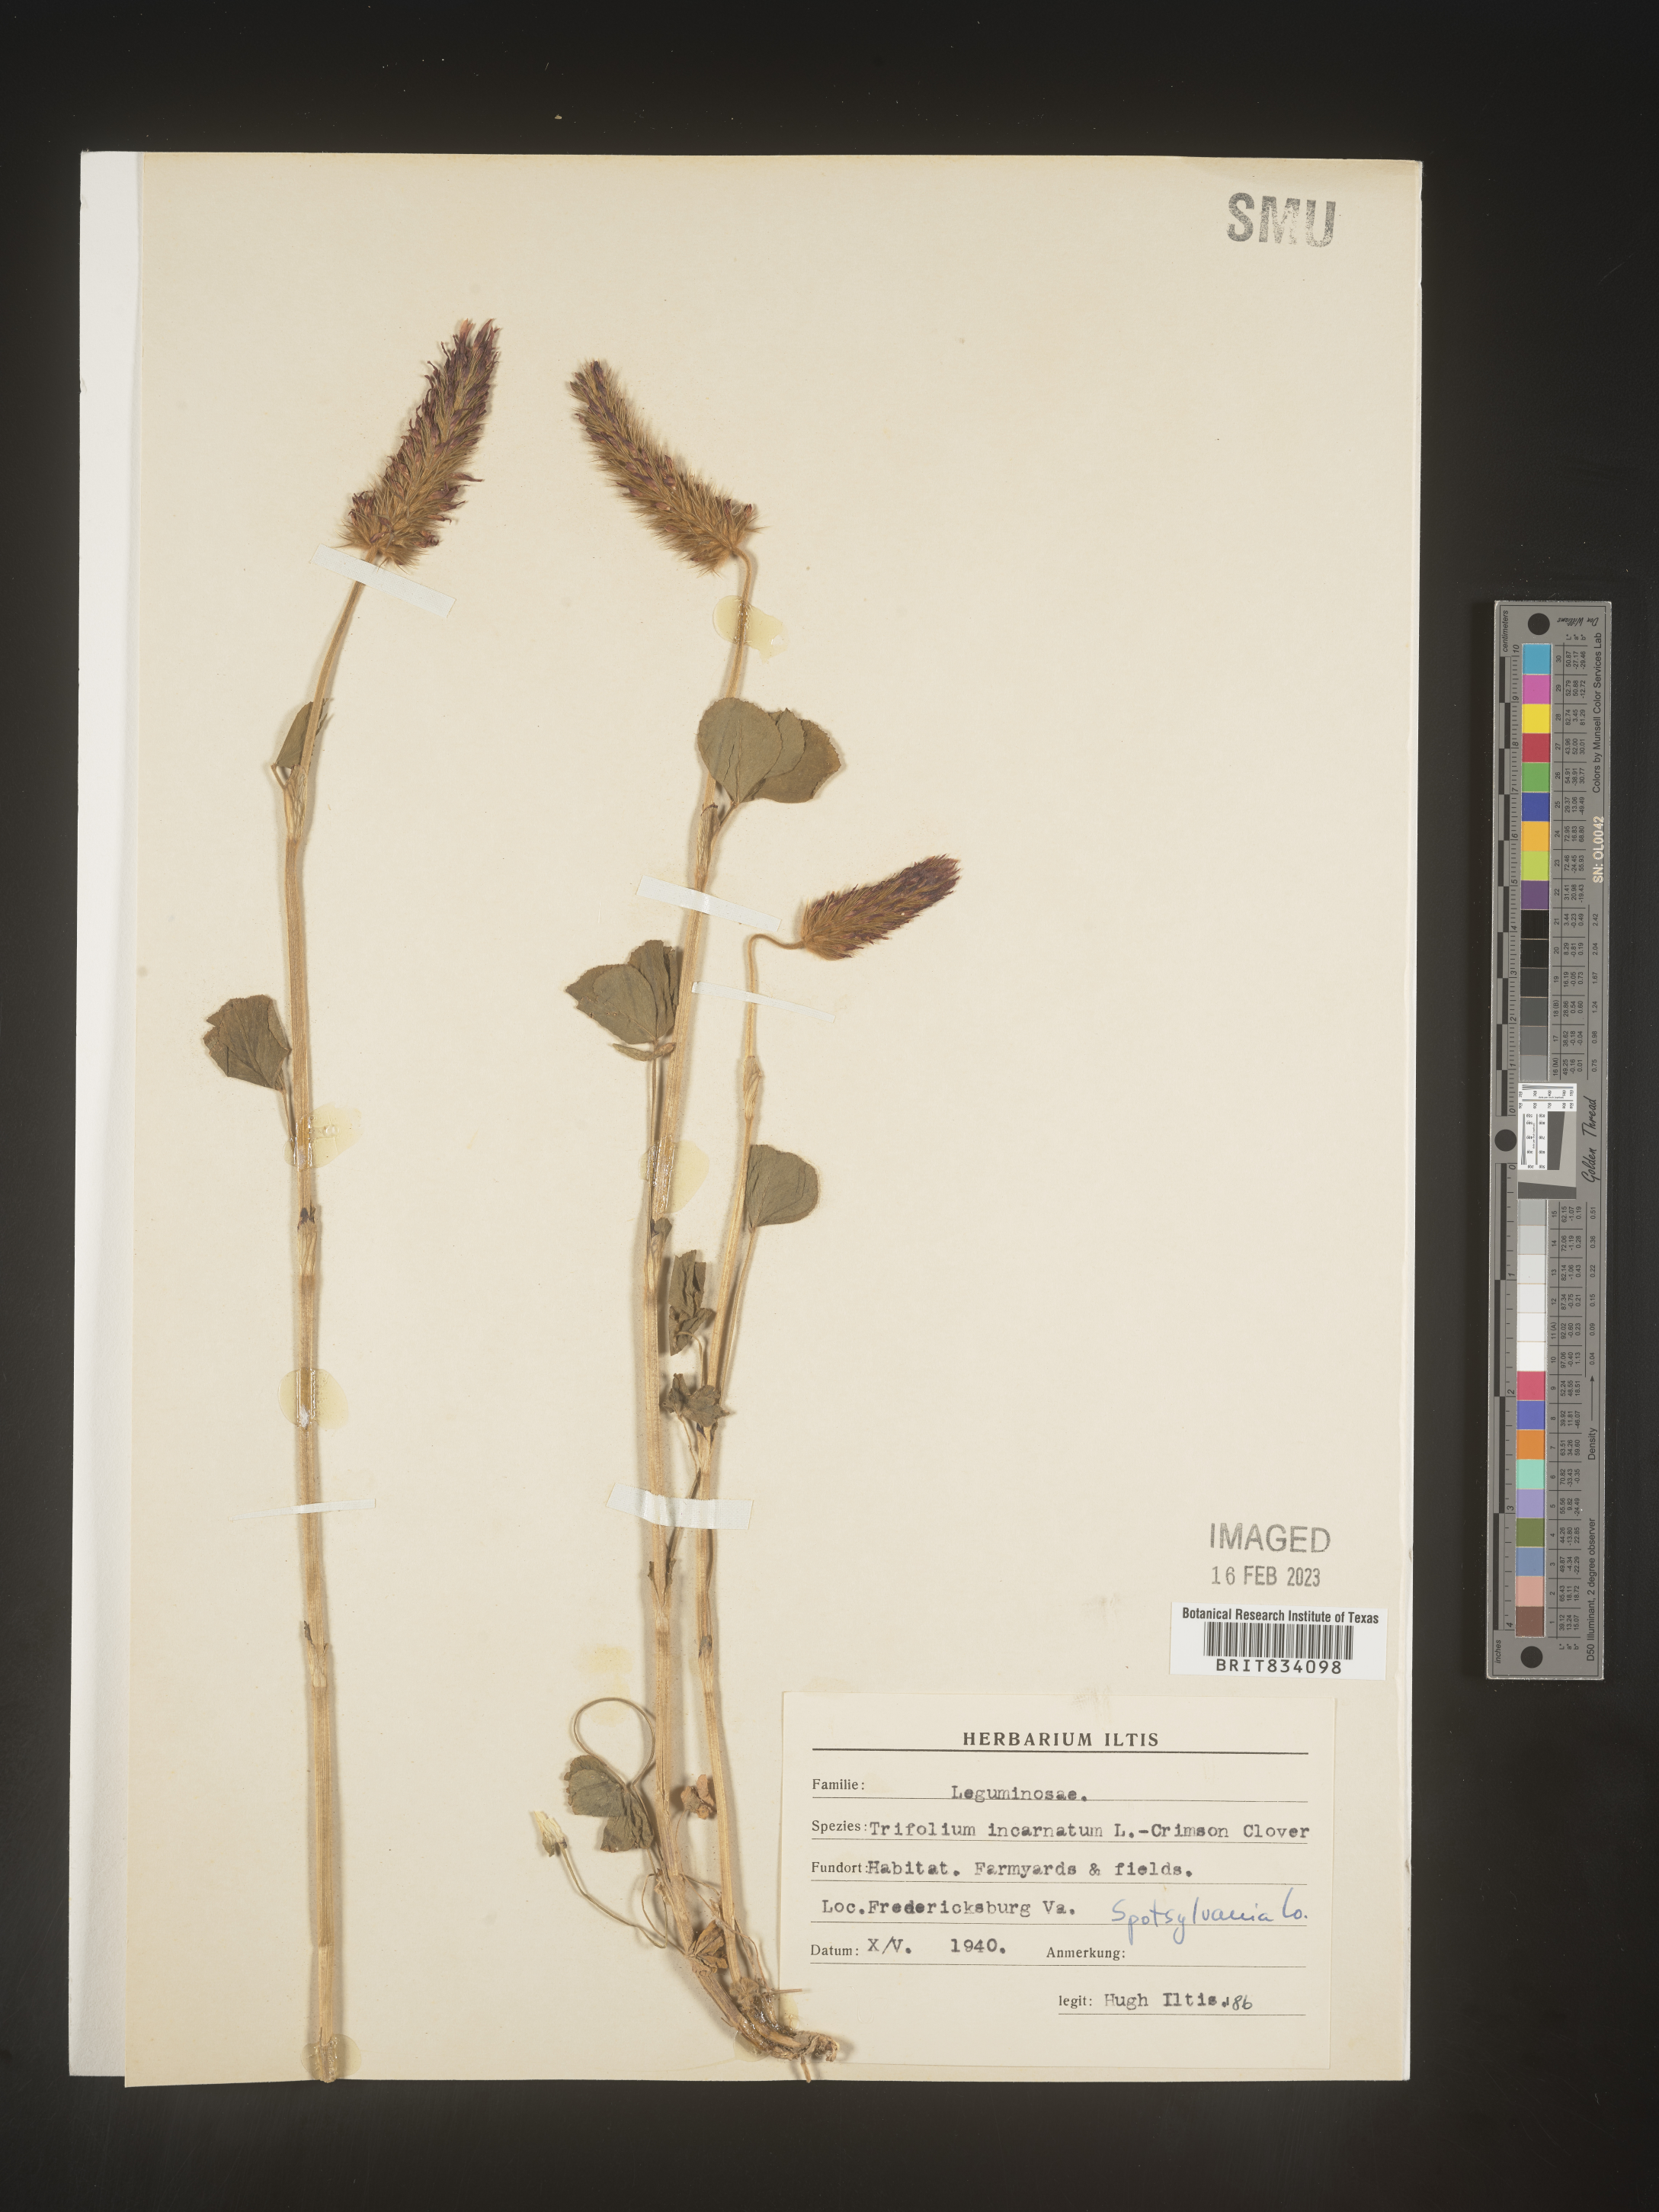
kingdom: Plantae
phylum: Tracheophyta
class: Magnoliopsida
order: Fabales
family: Fabaceae
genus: Trifolium
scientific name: Trifolium incarnatum
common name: Crimson clover
